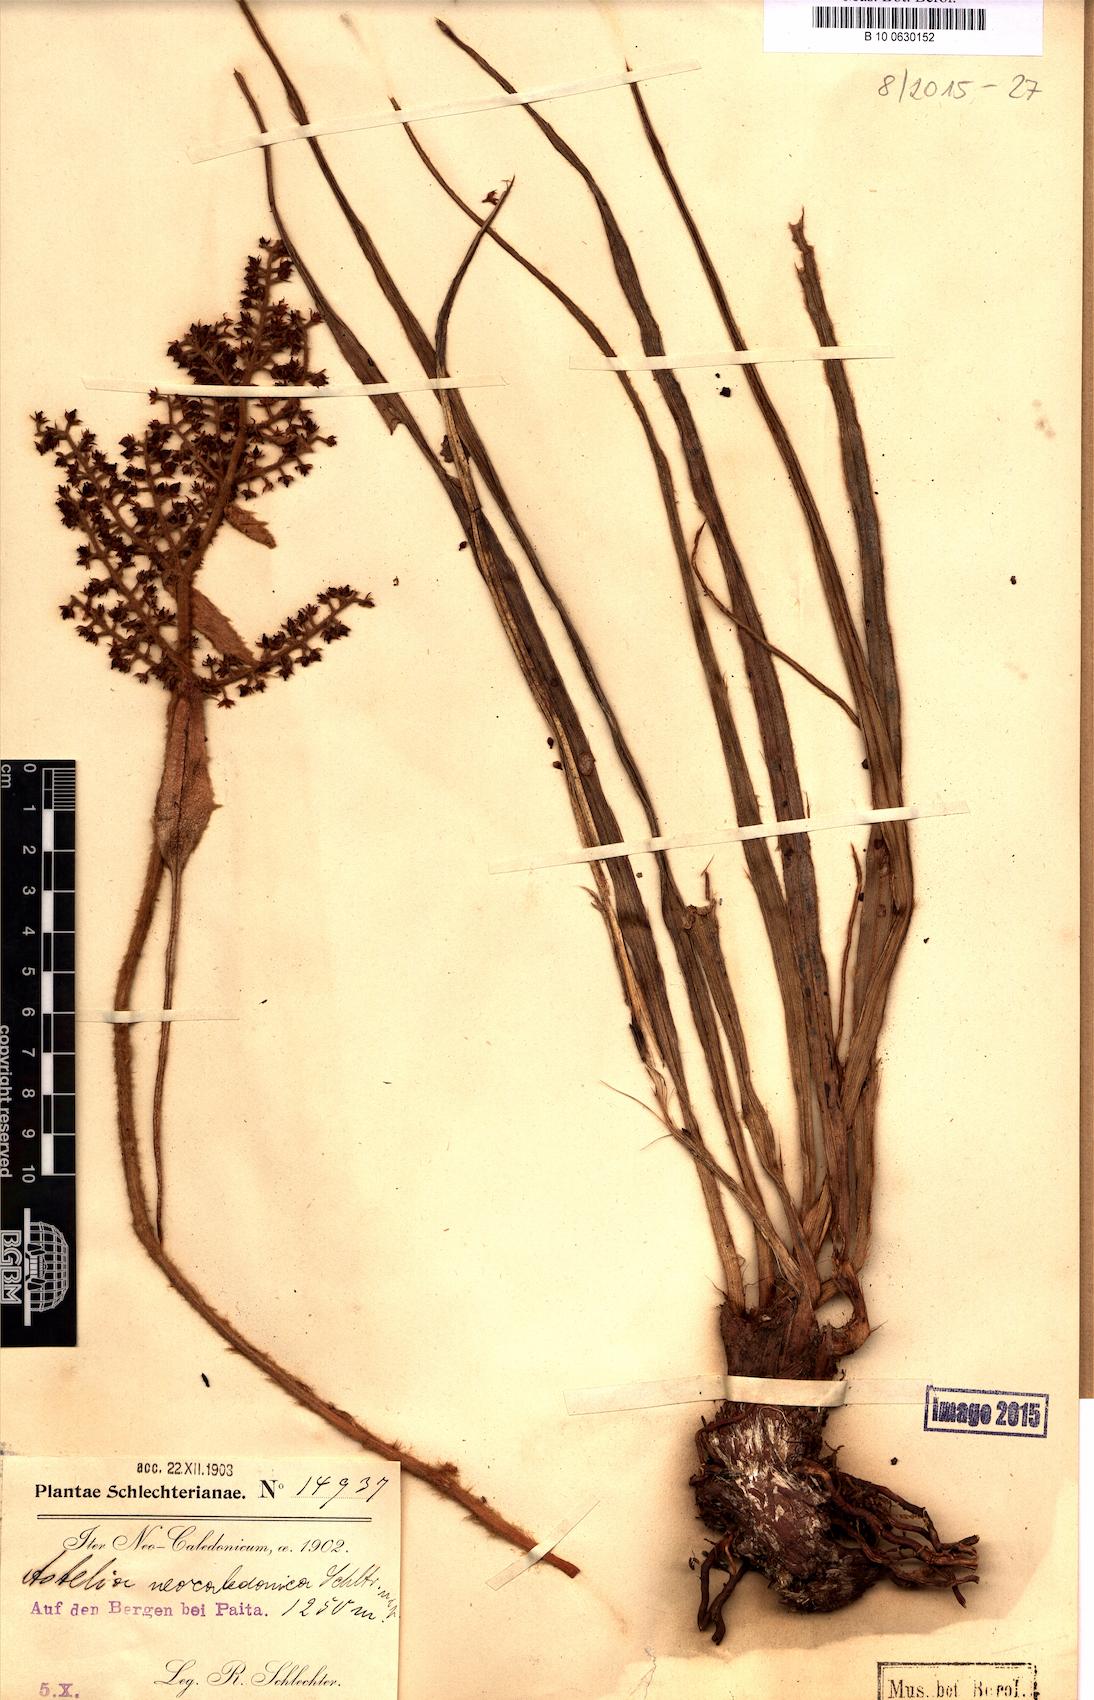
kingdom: Plantae
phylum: Tracheophyta
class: Liliopsida
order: Asparagales
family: Asteliaceae
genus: Astelia
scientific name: Astelia neocaledonica
